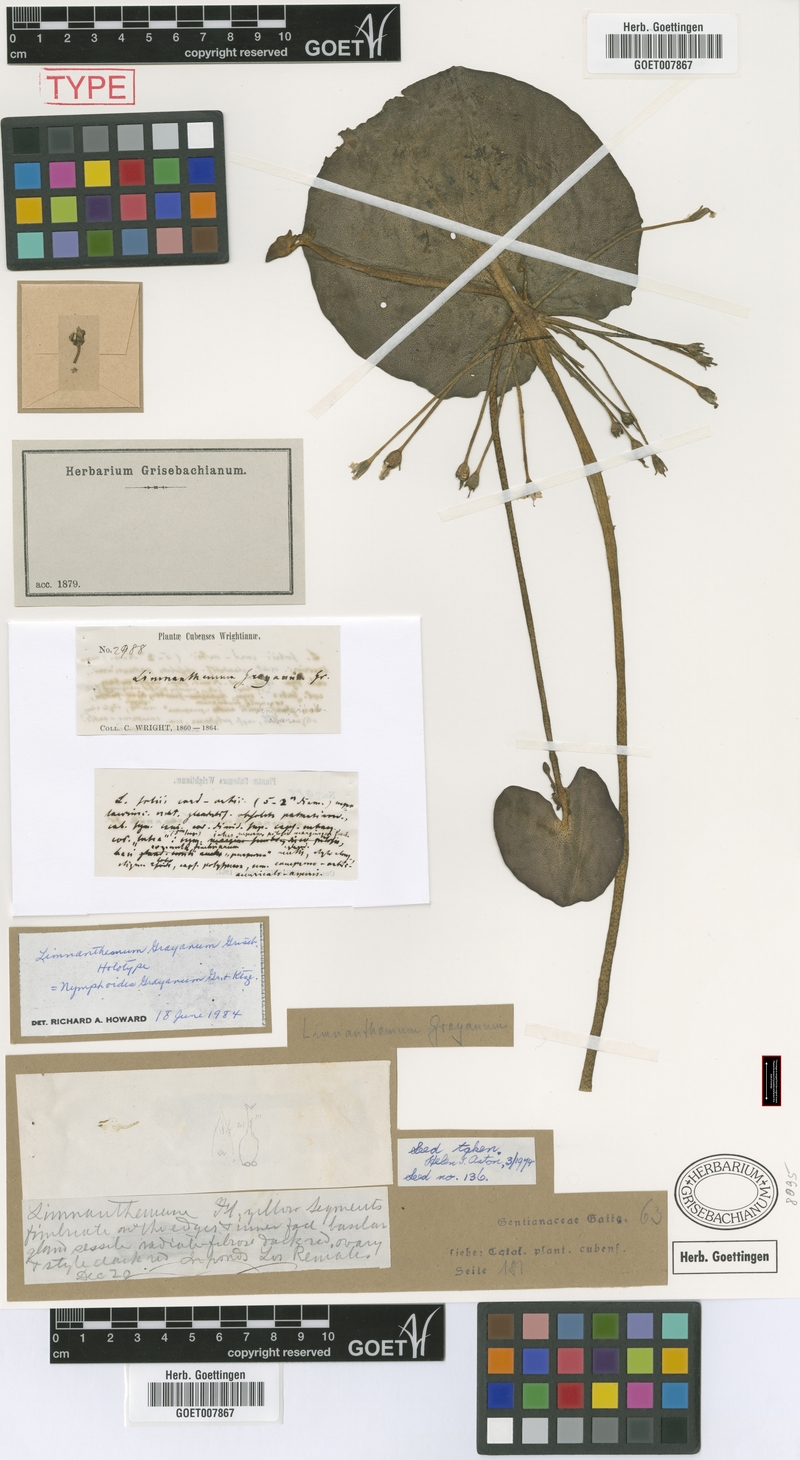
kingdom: Plantae
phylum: Tracheophyta
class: Magnoliopsida
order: Asterales
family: Menyanthaceae
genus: Nymphoides
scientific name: Nymphoides grayanum
